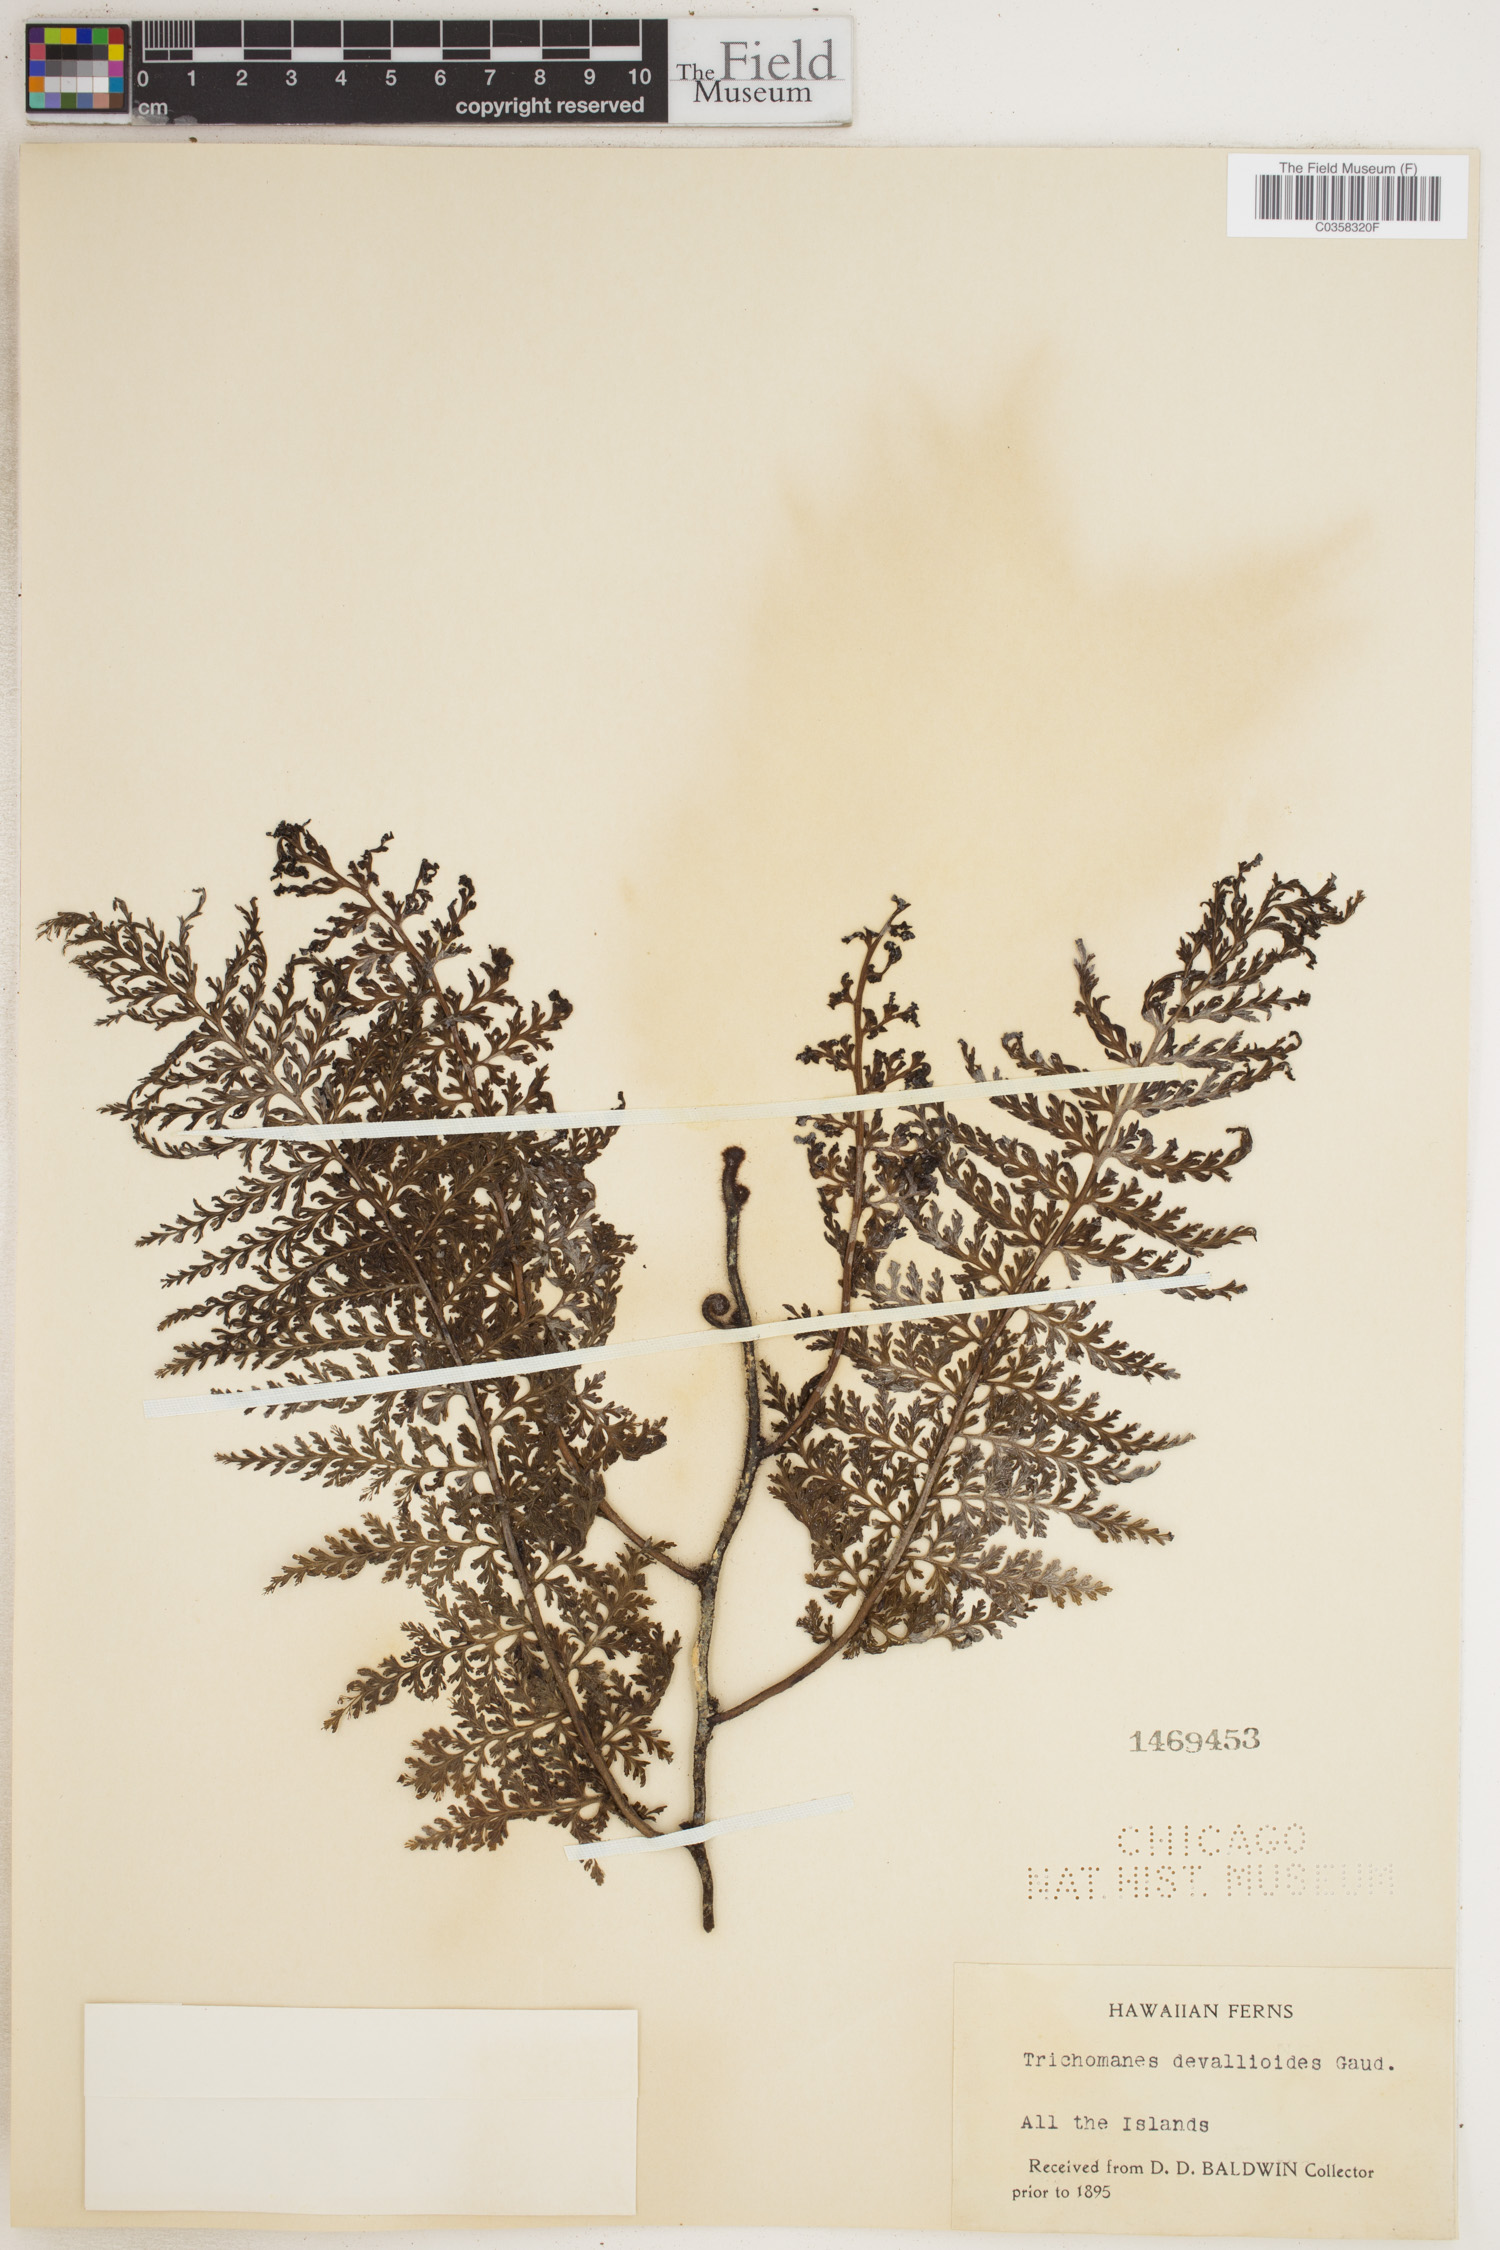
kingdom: Plantae
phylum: Tracheophyta
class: Polypodiopsida
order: Hymenophyllales
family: Hymenophyllaceae
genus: Vandenboschia
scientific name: Vandenboschia davallioides
